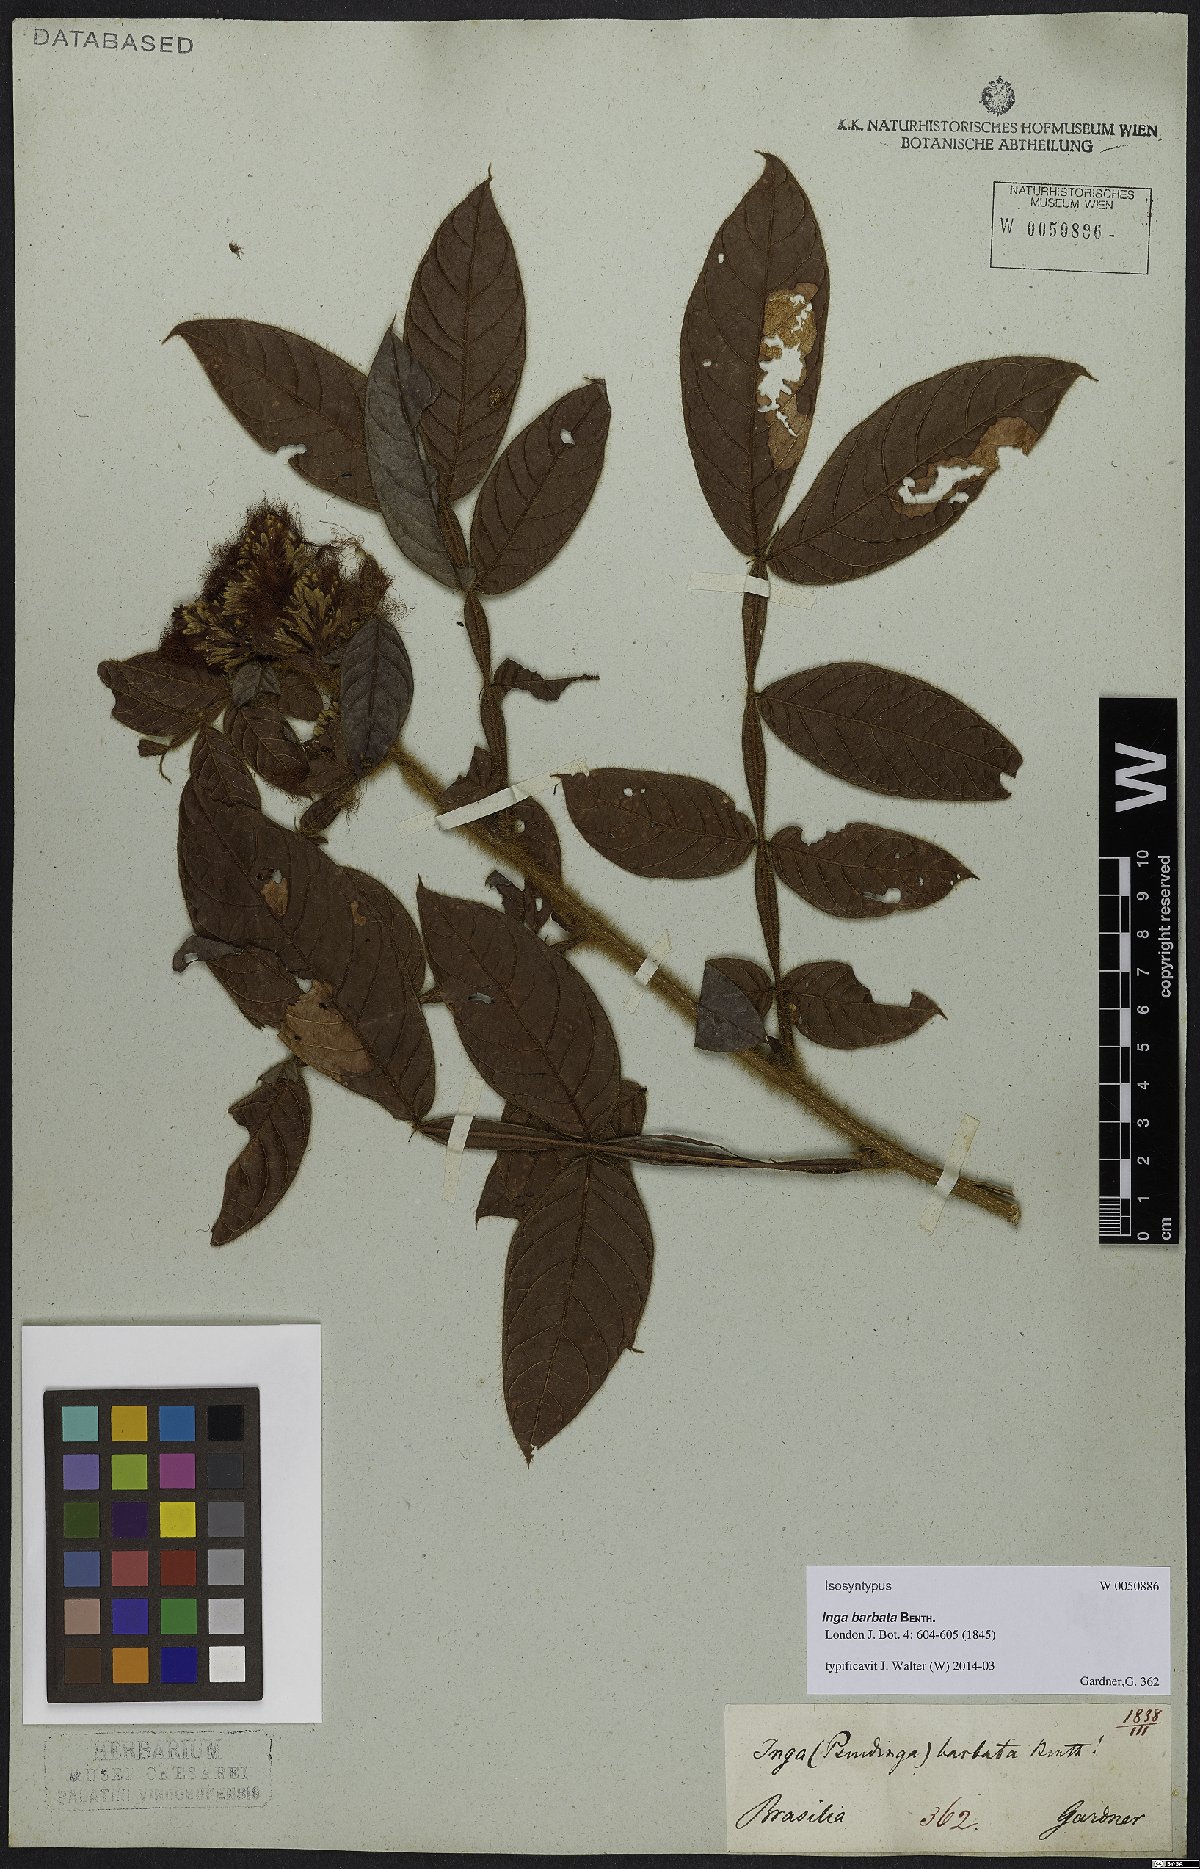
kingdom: Plantae
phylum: Tracheophyta
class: Magnoliopsida
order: Fabales
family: Fabaceae
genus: Inga
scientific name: Inga barbata
